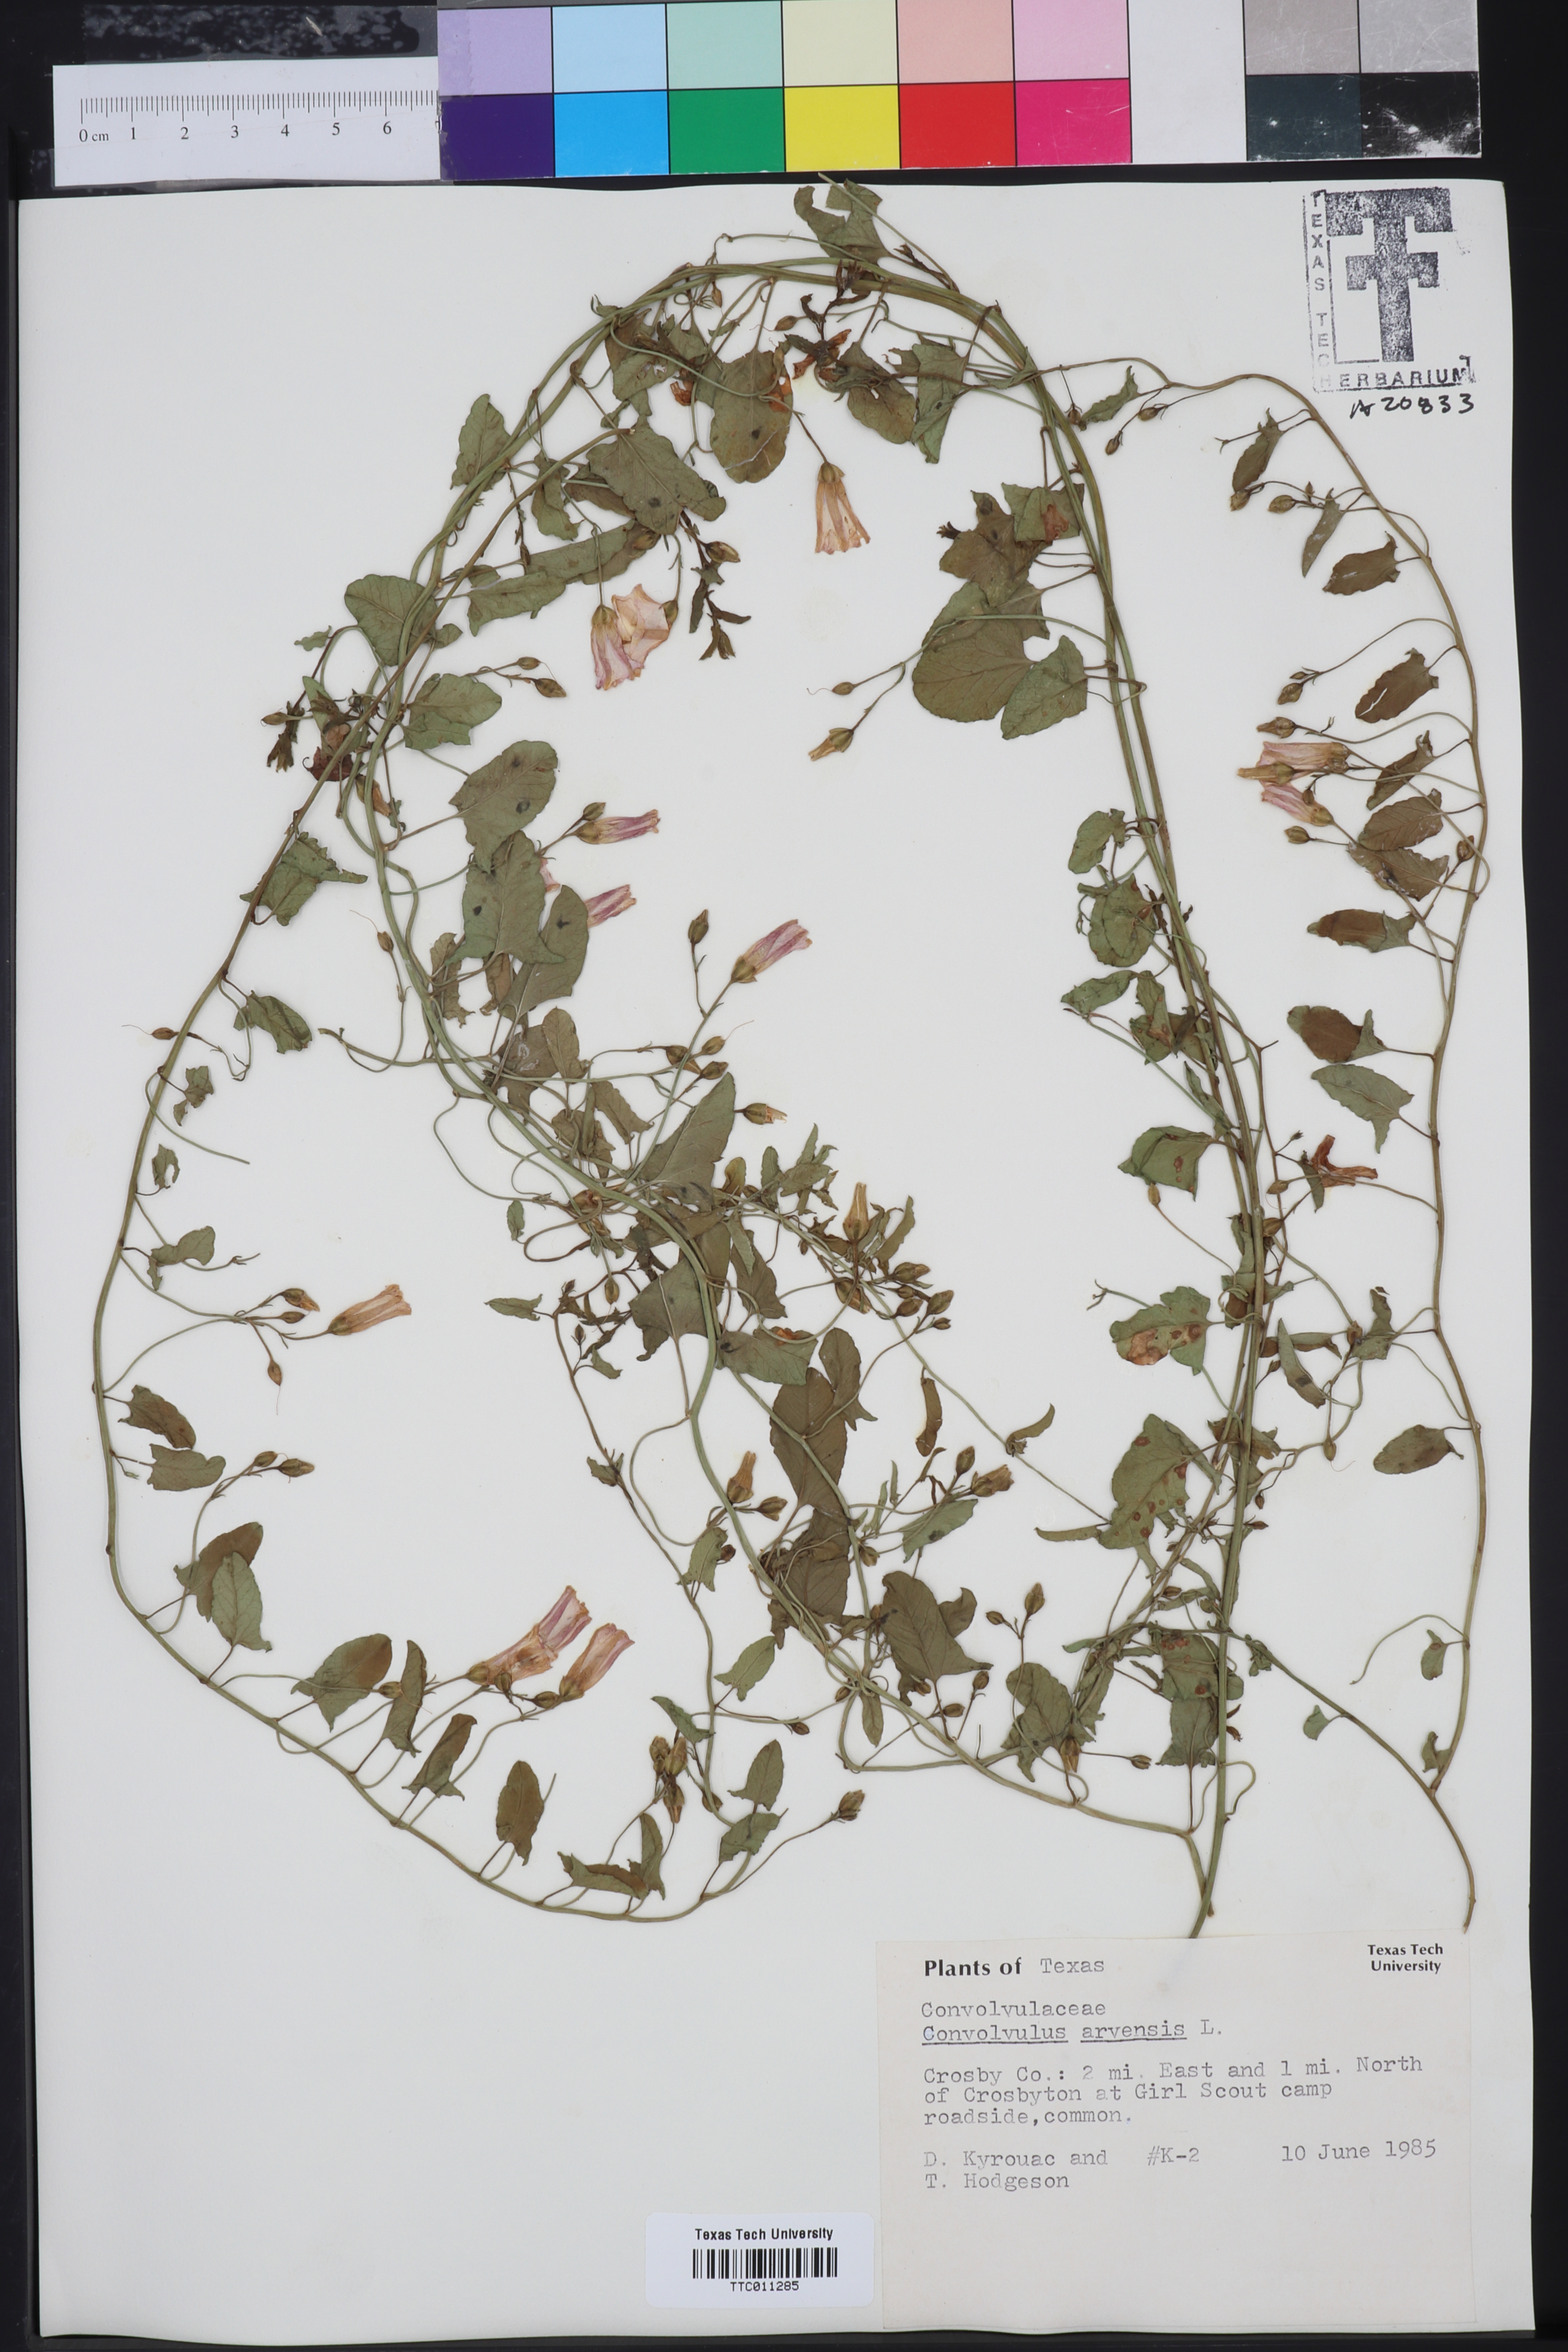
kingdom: Plantae
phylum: Tracheophyta
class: Magnoliopsida
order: Solanales
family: Convolvulaceae
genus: Convolvulus
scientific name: Convolvulus arvensis
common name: Field bindweed
